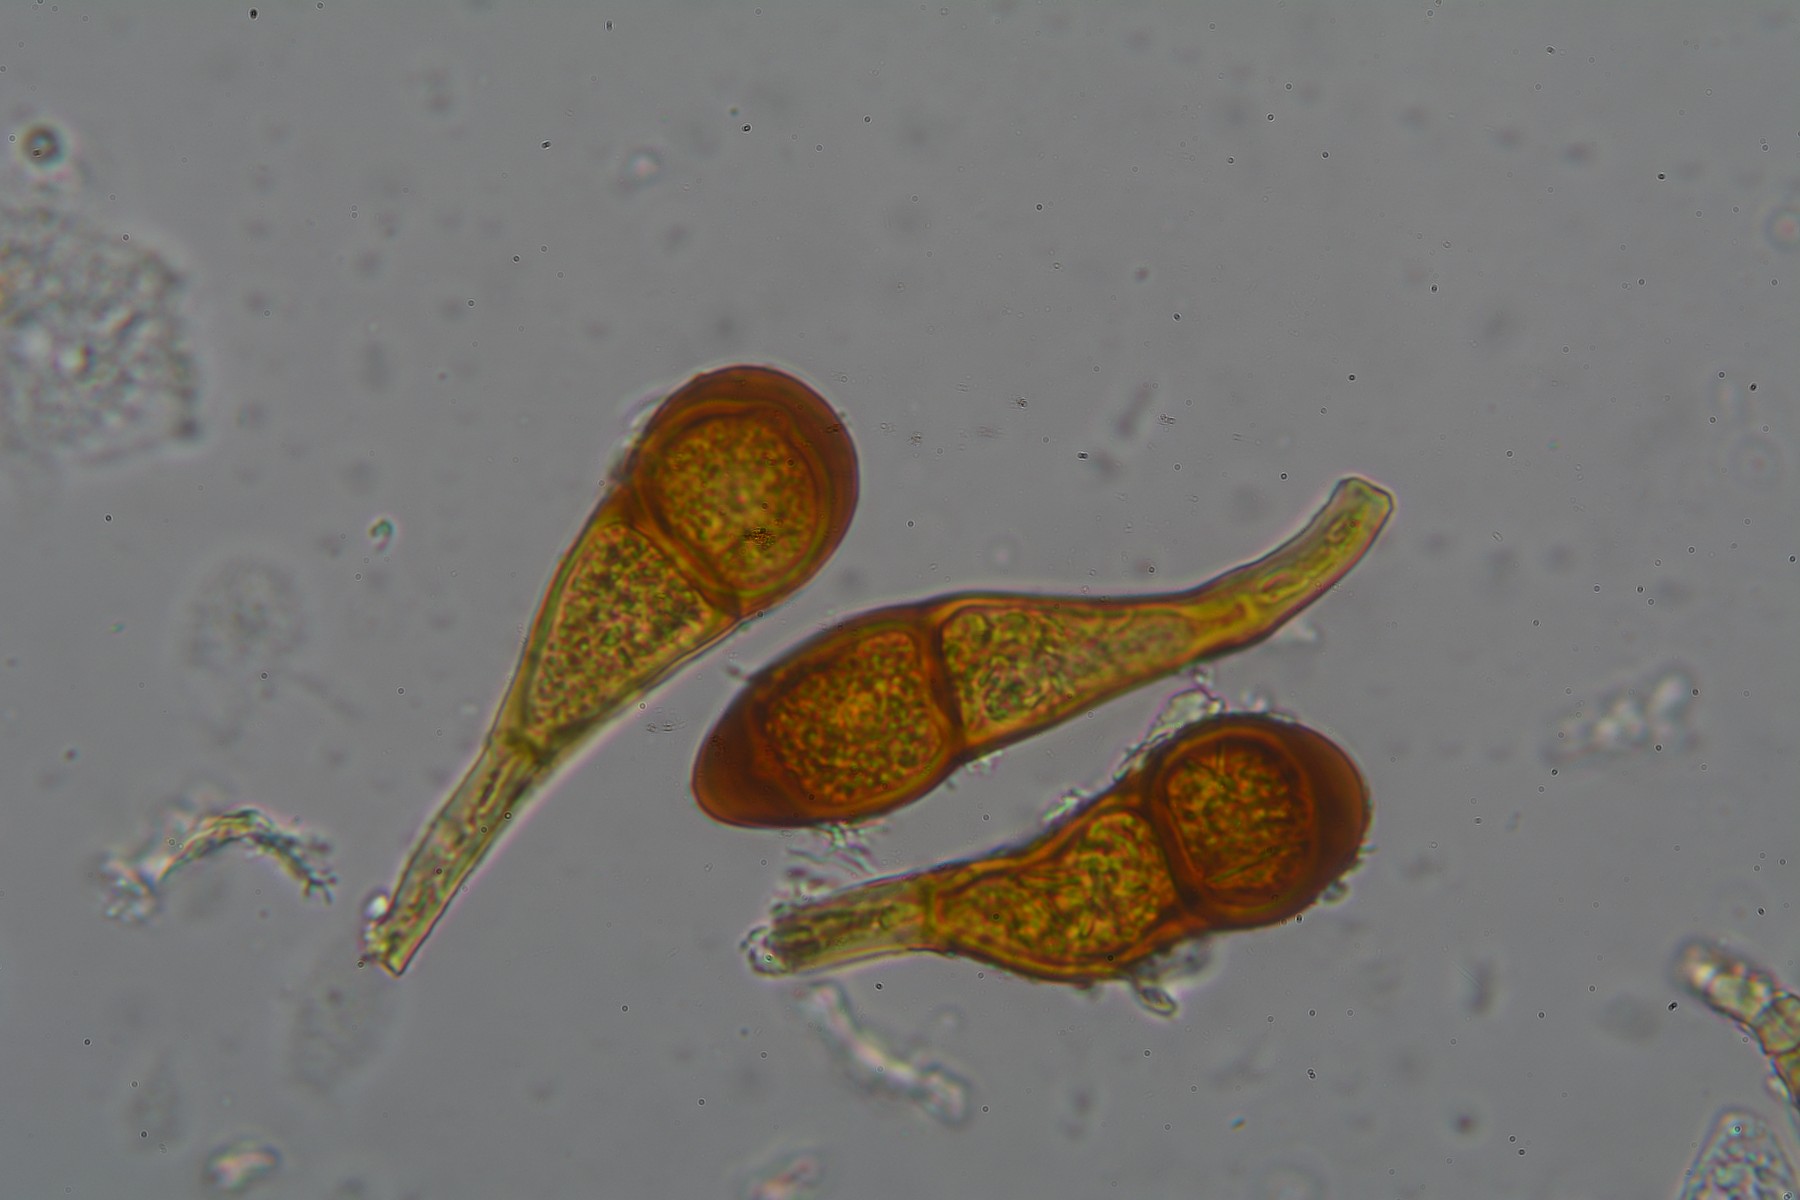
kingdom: Fungi
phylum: Basidiomycota
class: Pucciniomycetes
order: Pucciniales
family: Pucciniaceae
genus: Puccinia
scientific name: Puccinia magnusiana
